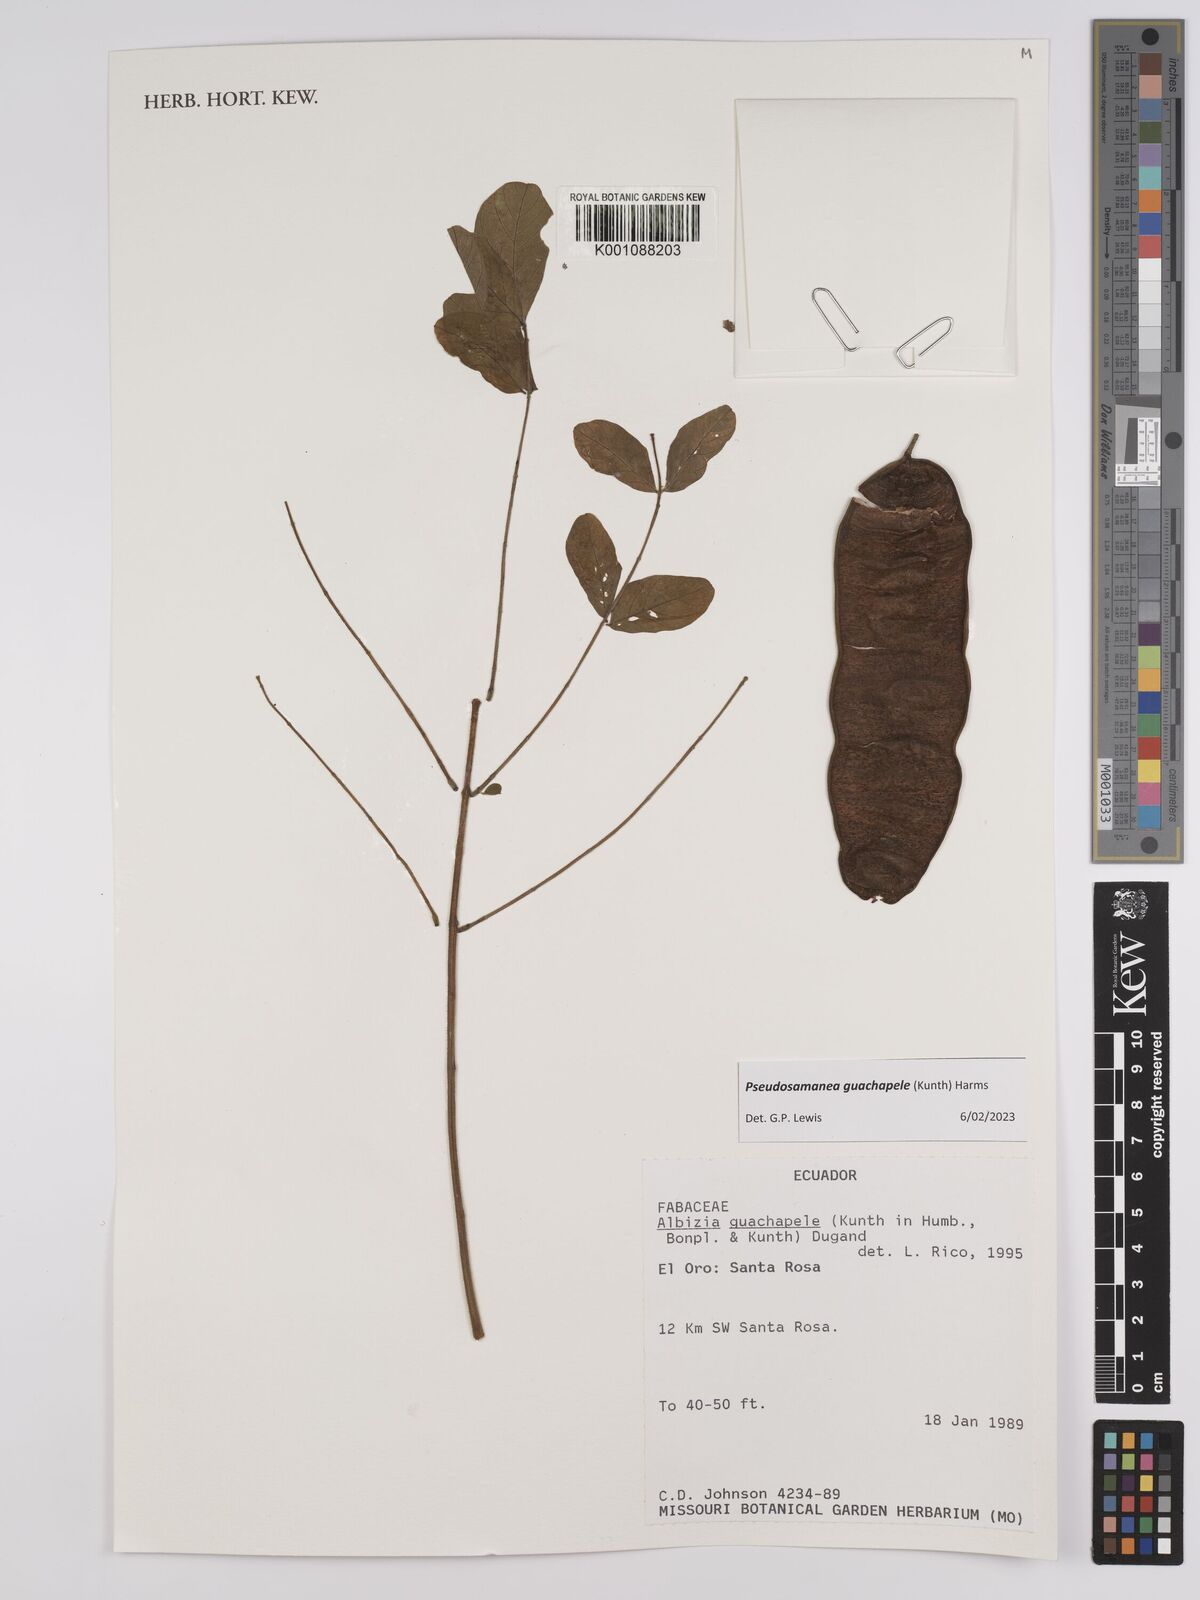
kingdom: Plantae
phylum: Tracheophyta
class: Magnoliopsida
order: Fabales
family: Fabaceae
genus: Pseudosamanea
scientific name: Pseudosamanea guachapele
